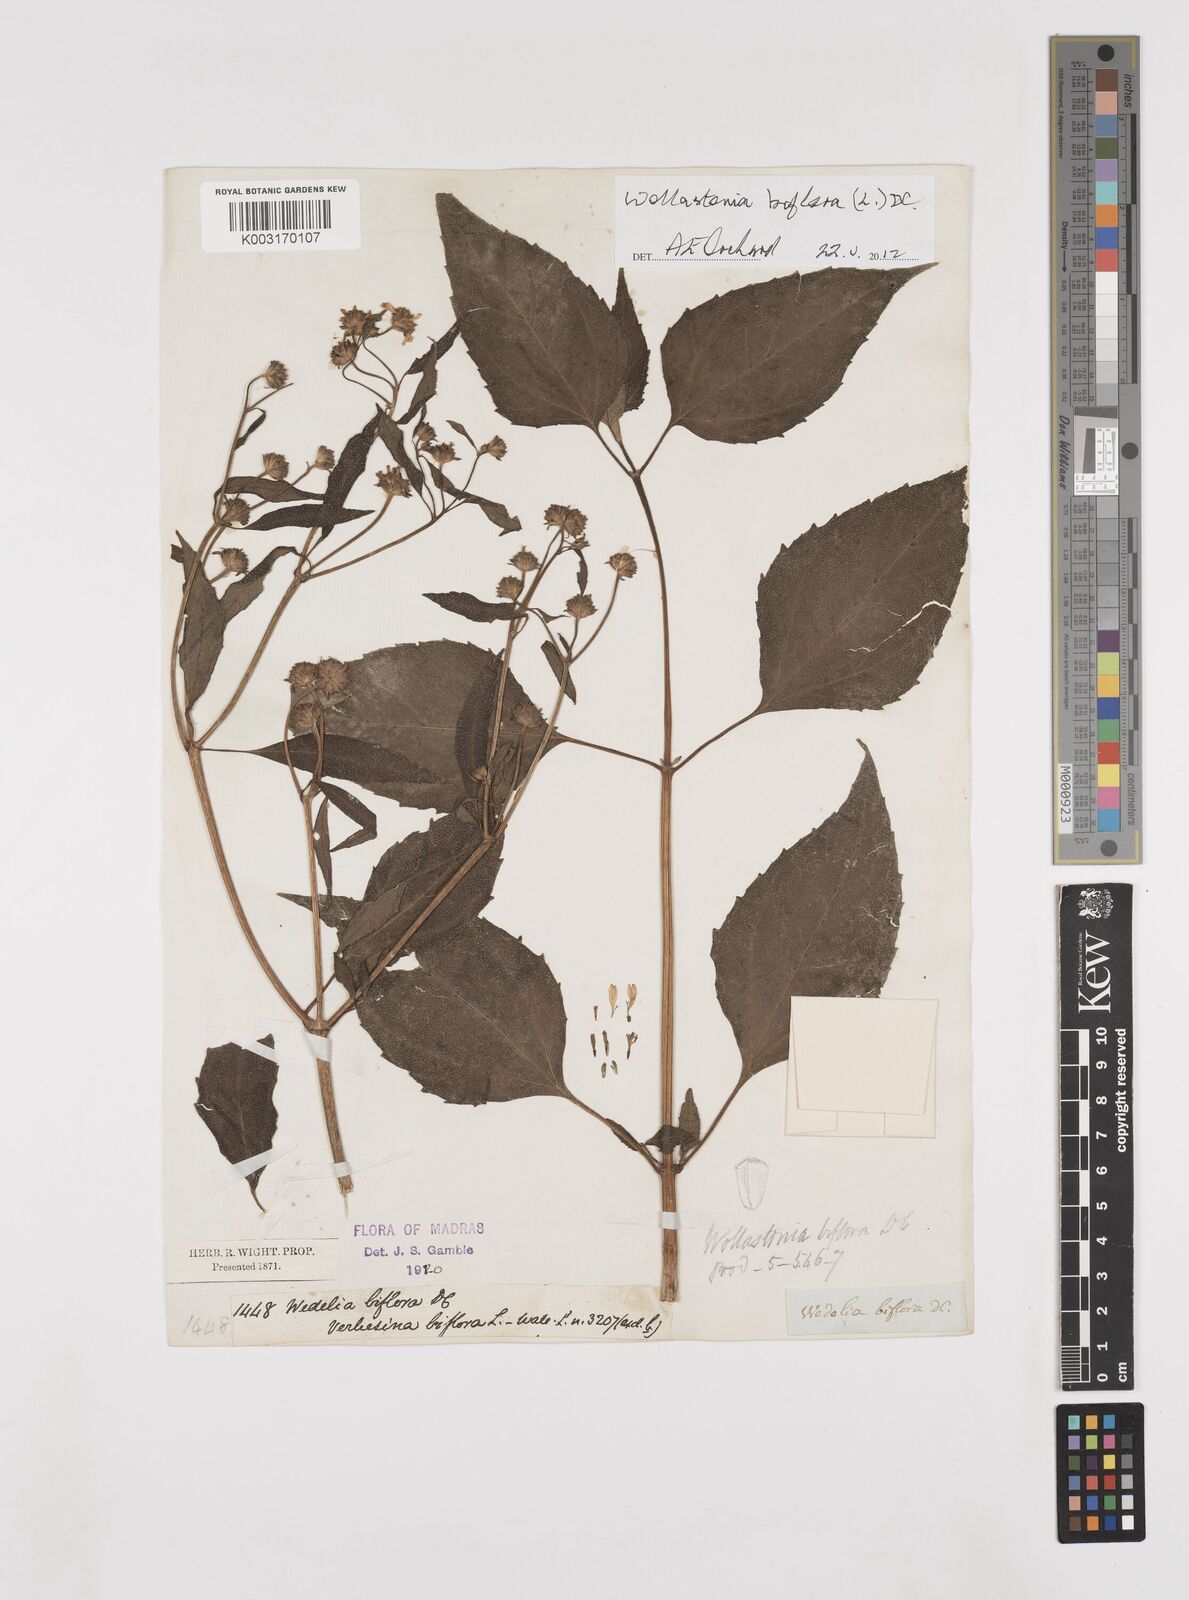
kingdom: Plantae
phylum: Tracheophyta
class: Magnoliopsida
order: Asterales
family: Asteraceae
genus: Wollastonia
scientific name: Wollastonia biflora
